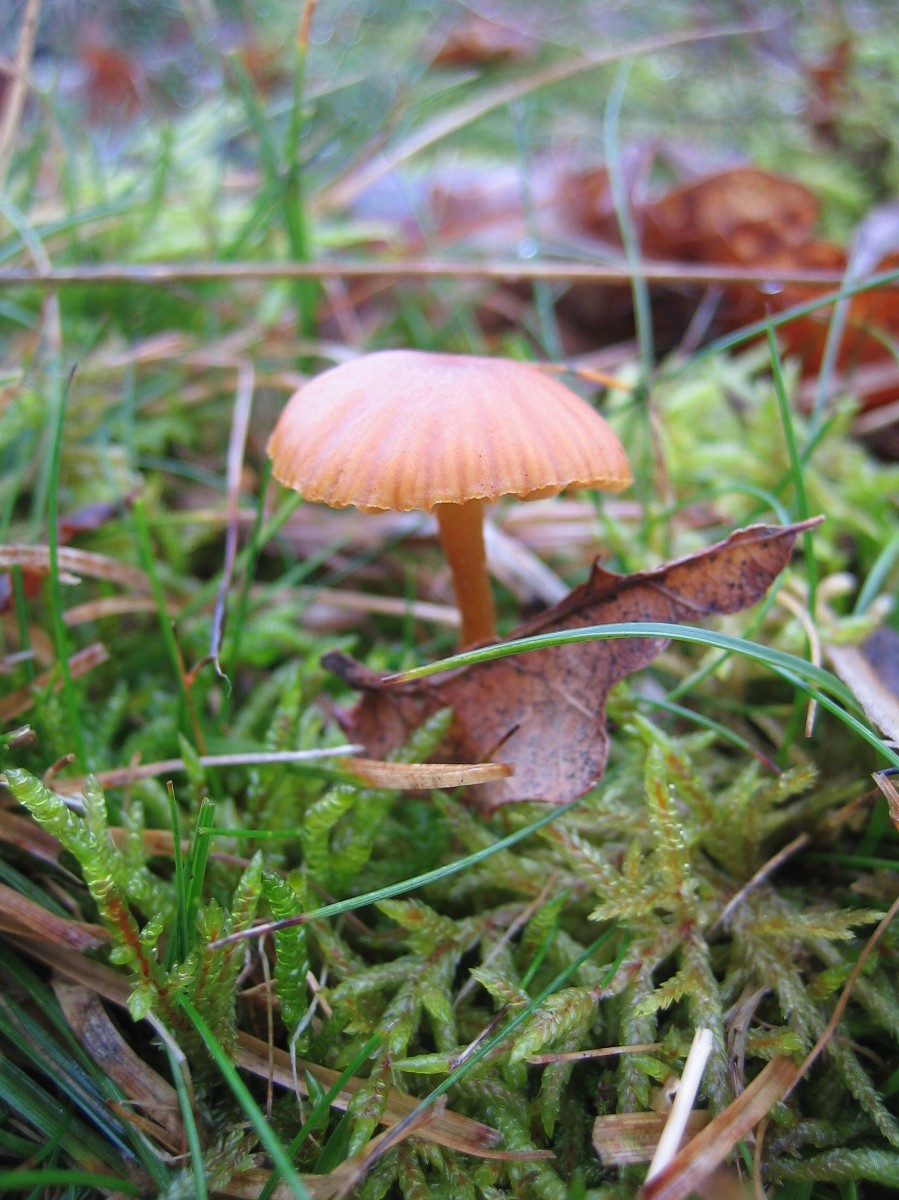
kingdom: Fungi
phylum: Basidiomycota
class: Agaricomycetes
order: Agaricales
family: Hymenogastraceae
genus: Galerina
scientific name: Galerina
